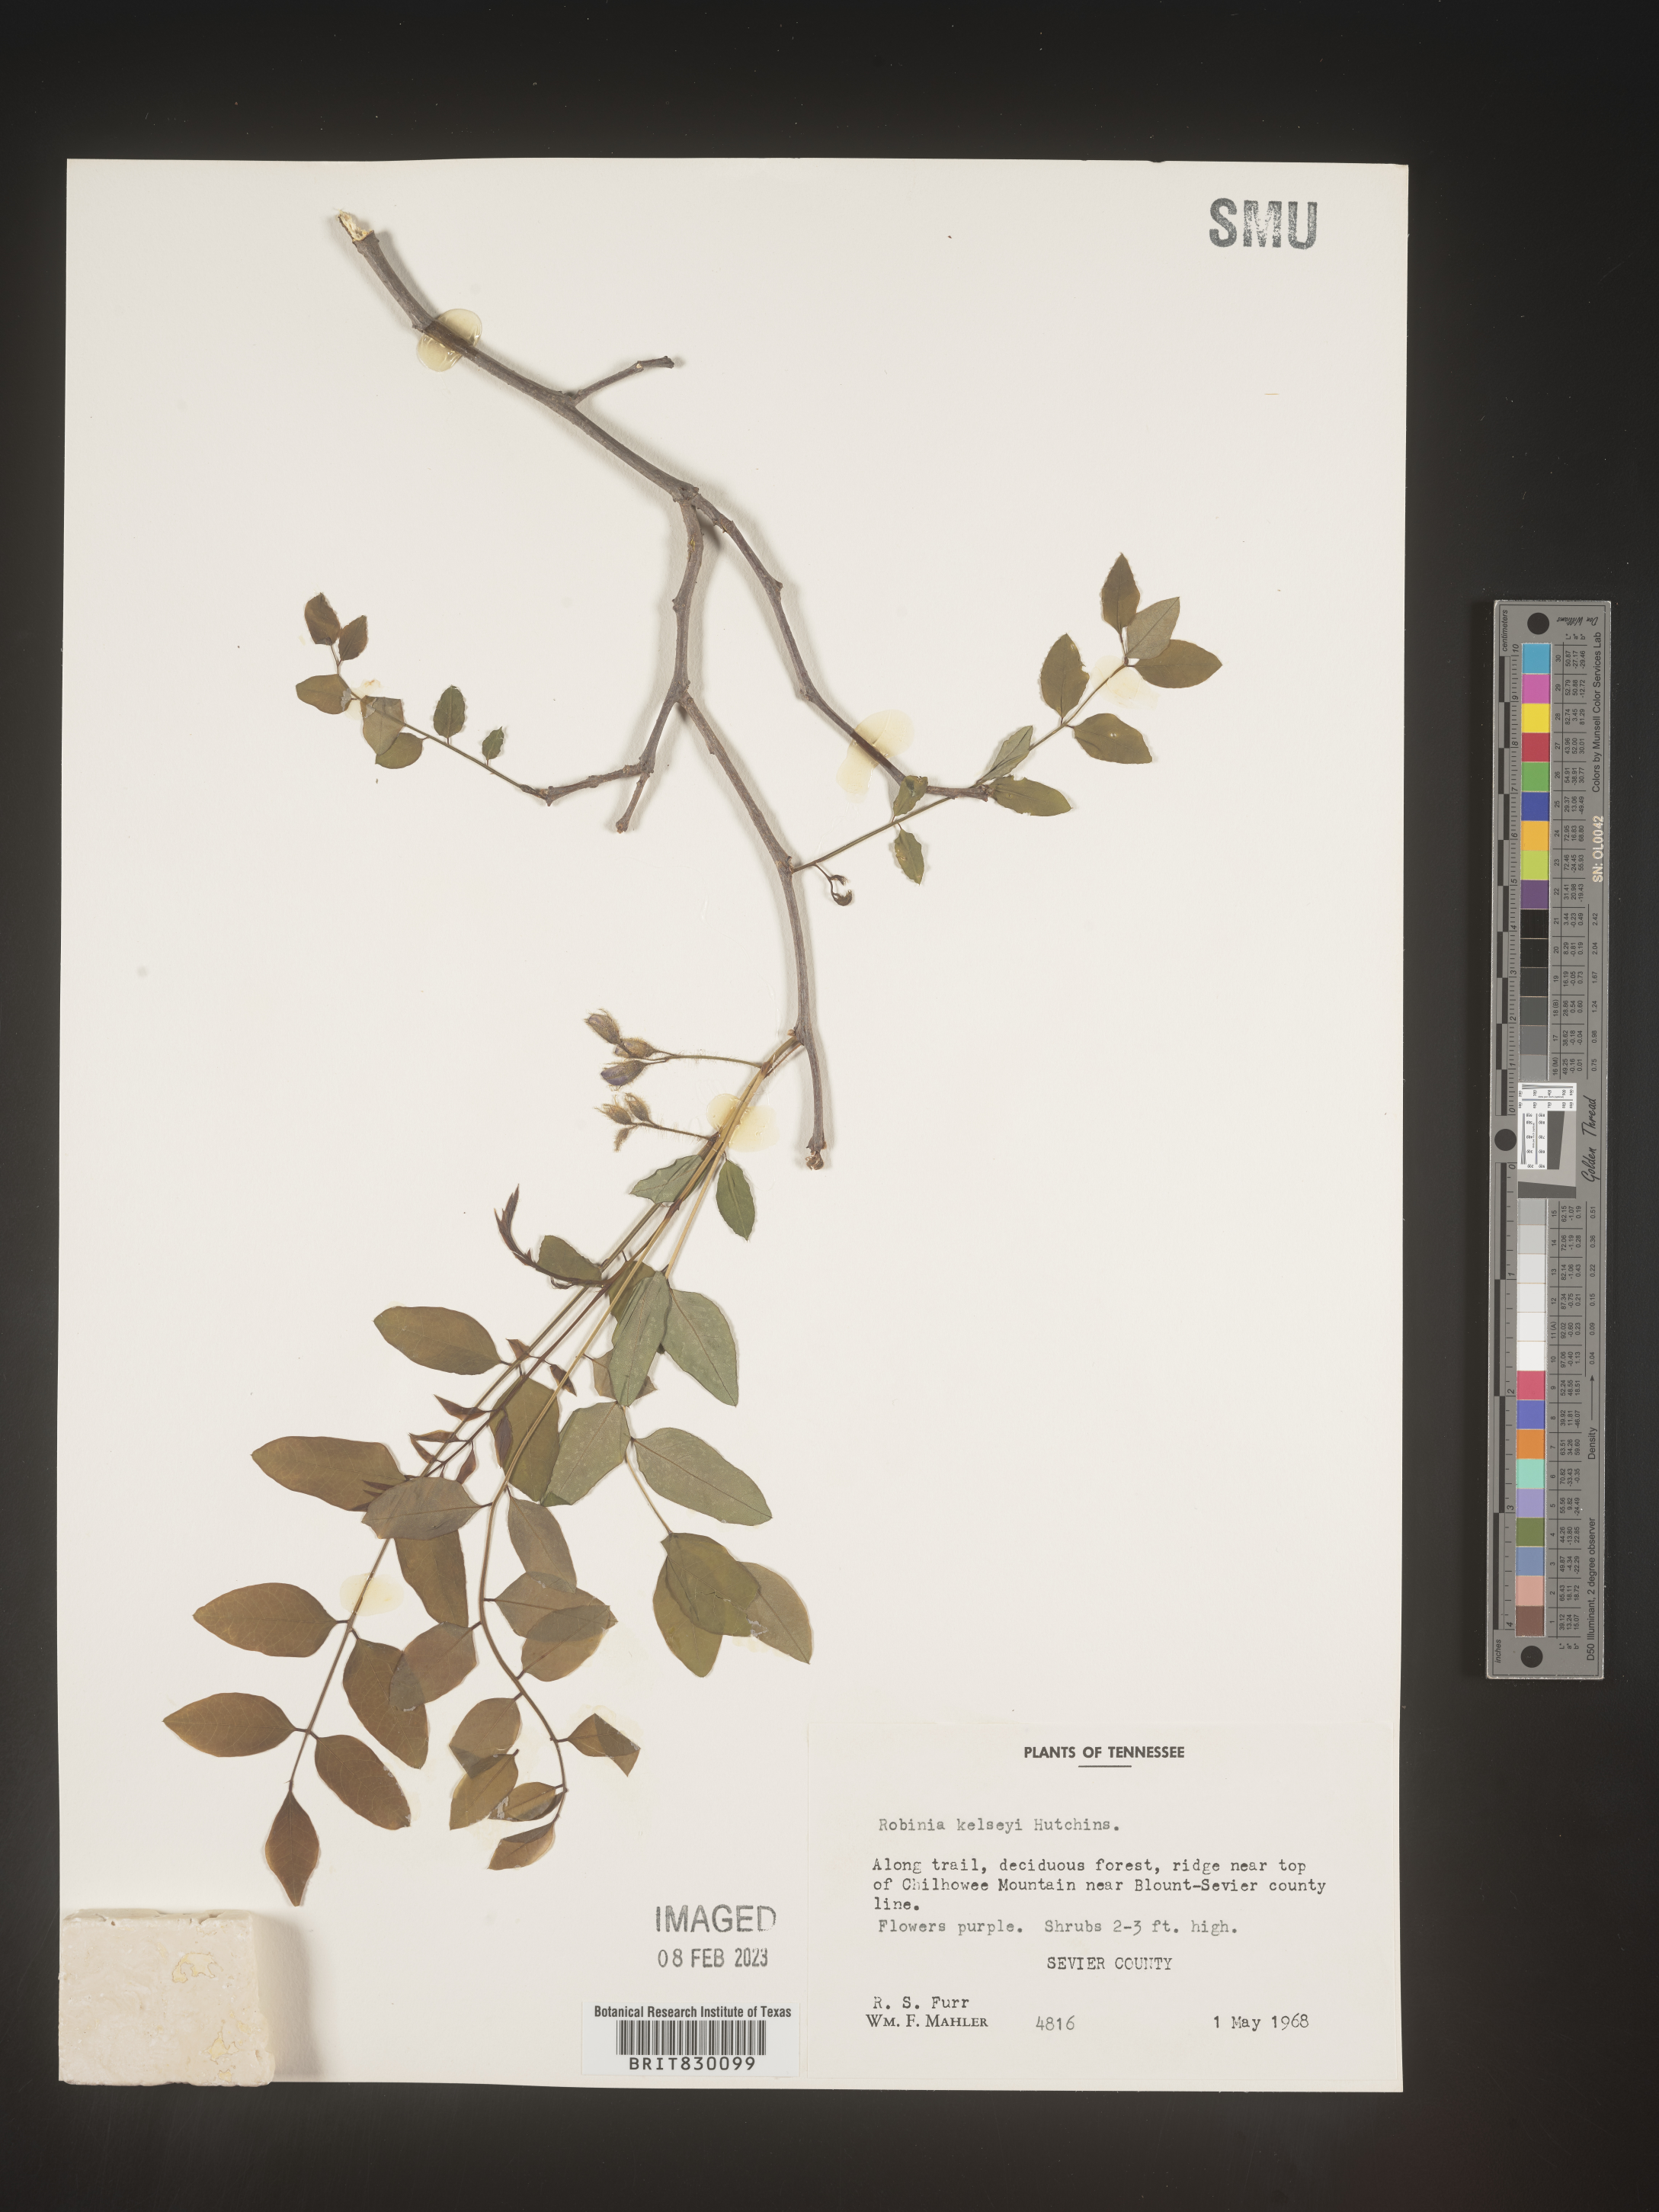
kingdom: Plantae
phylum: Tracheophyta
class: Magnoliopsida
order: Fabales
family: Fabaceae
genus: Robinia
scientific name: Robinia
